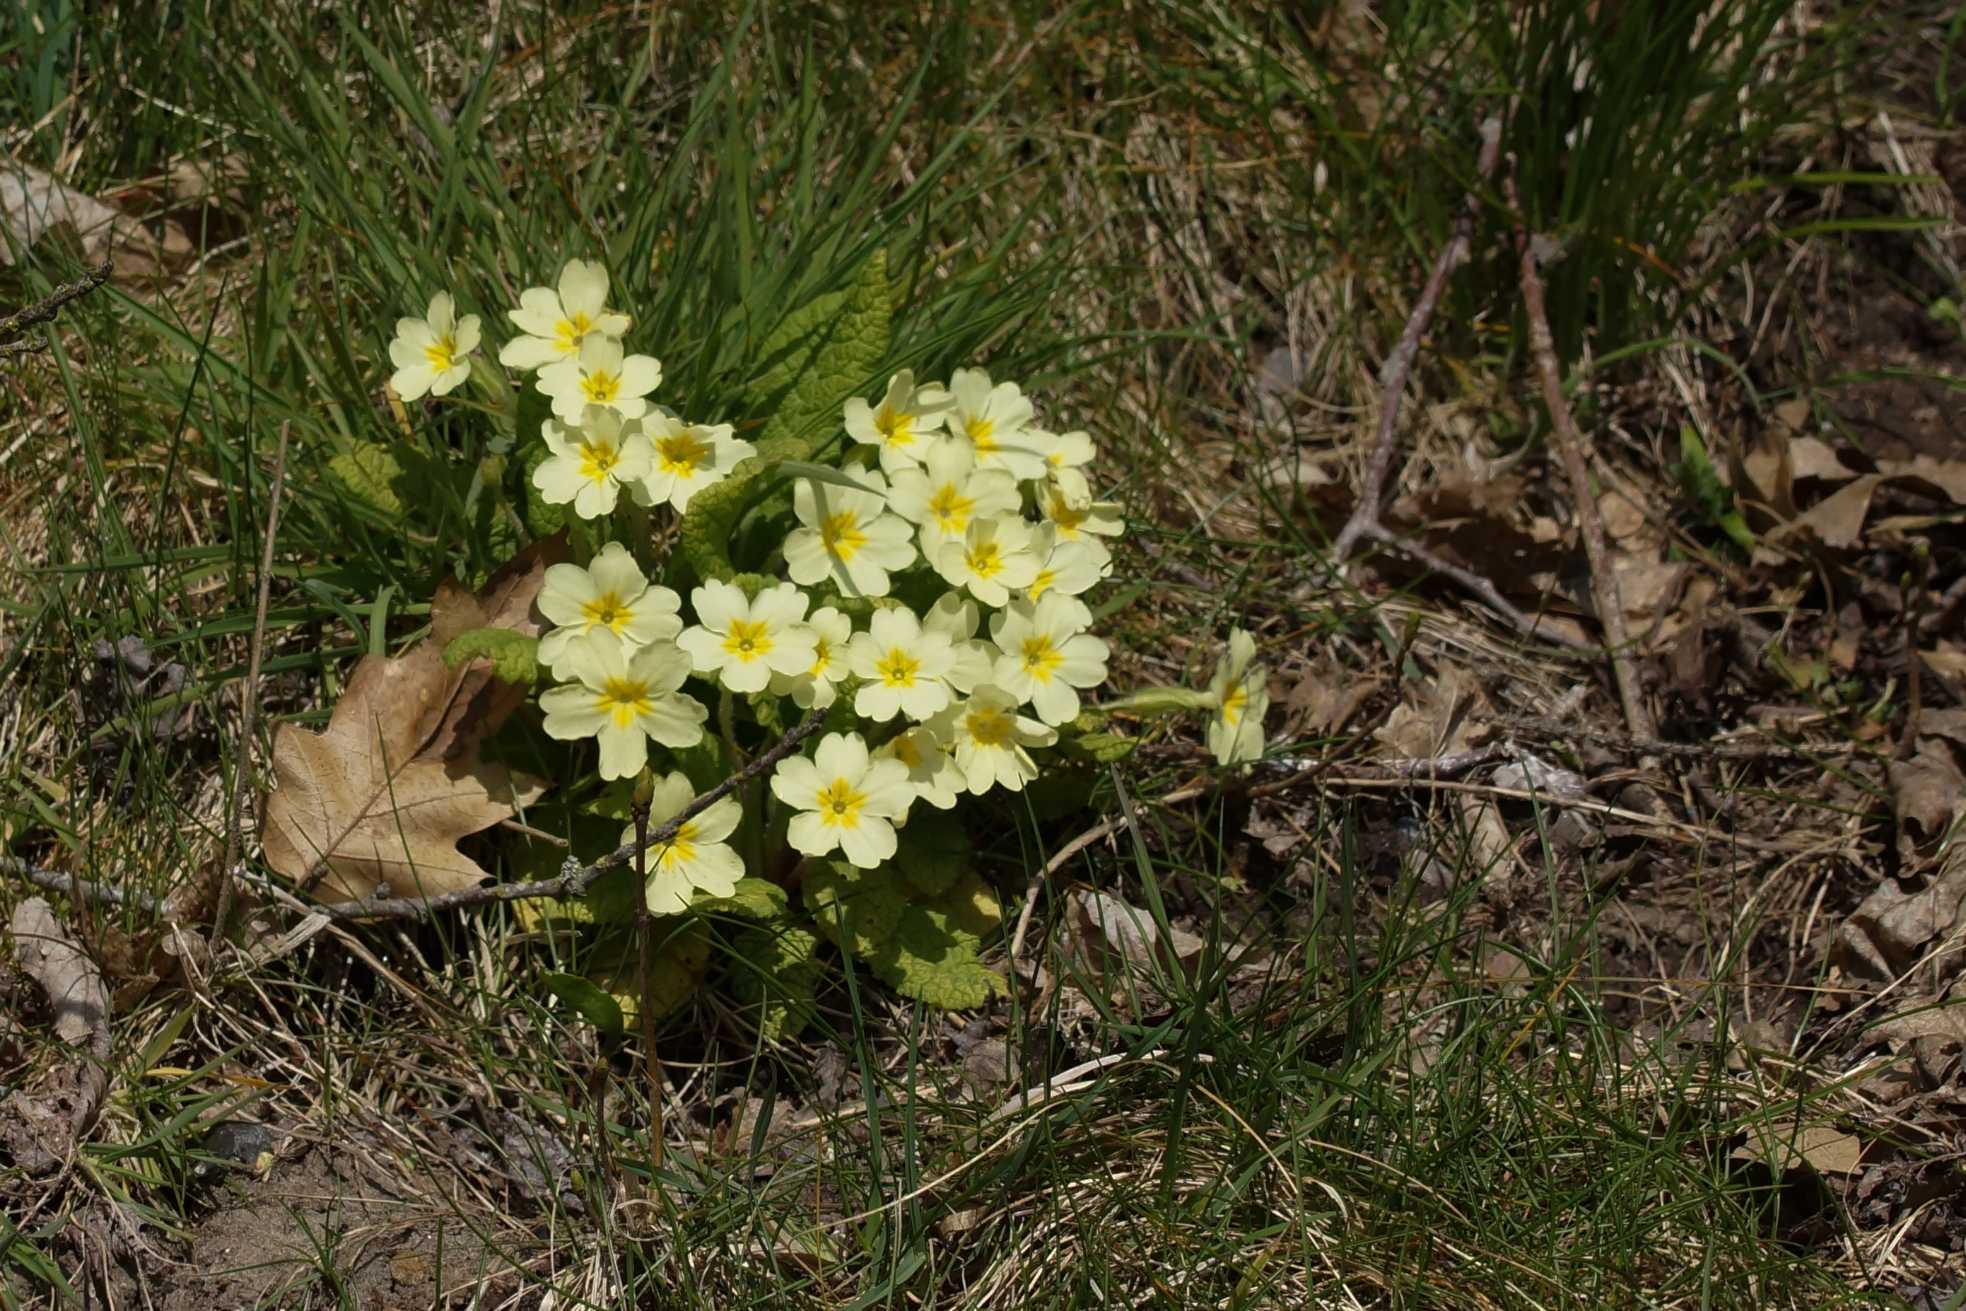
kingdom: Plantae
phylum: Tracheophyta
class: Magnoliopsida
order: Ericales
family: Primulaceae
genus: Primula
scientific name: Primula vulgaris
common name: Storblomstret kodriver
